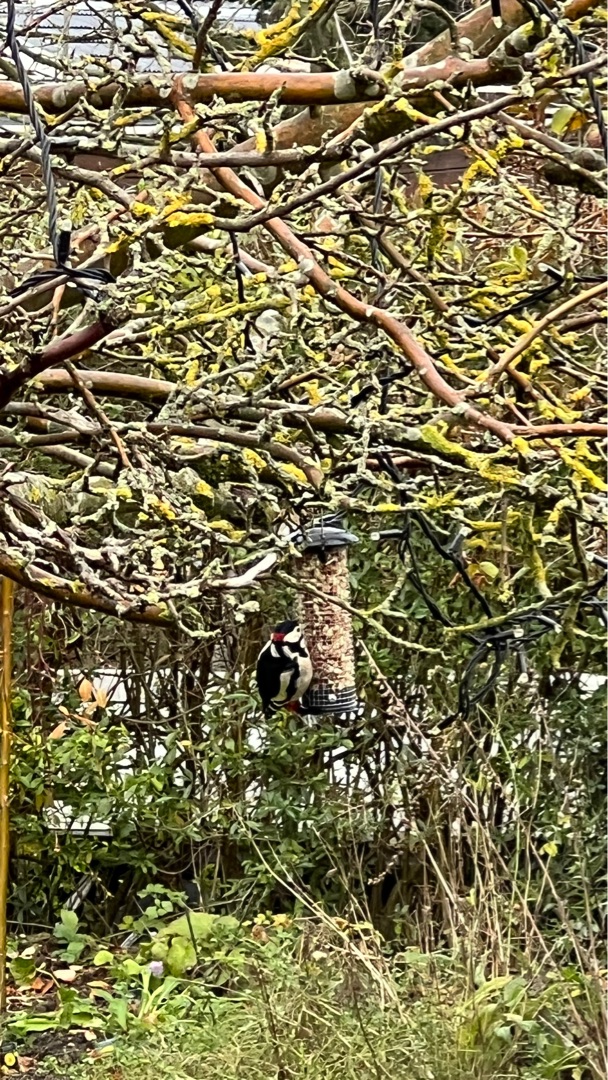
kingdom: Animalia
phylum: Chordata
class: Aves
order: Piciformes
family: Picidae
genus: Dendrocopos
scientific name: Dendrocopos major
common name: Stor flagspætte
